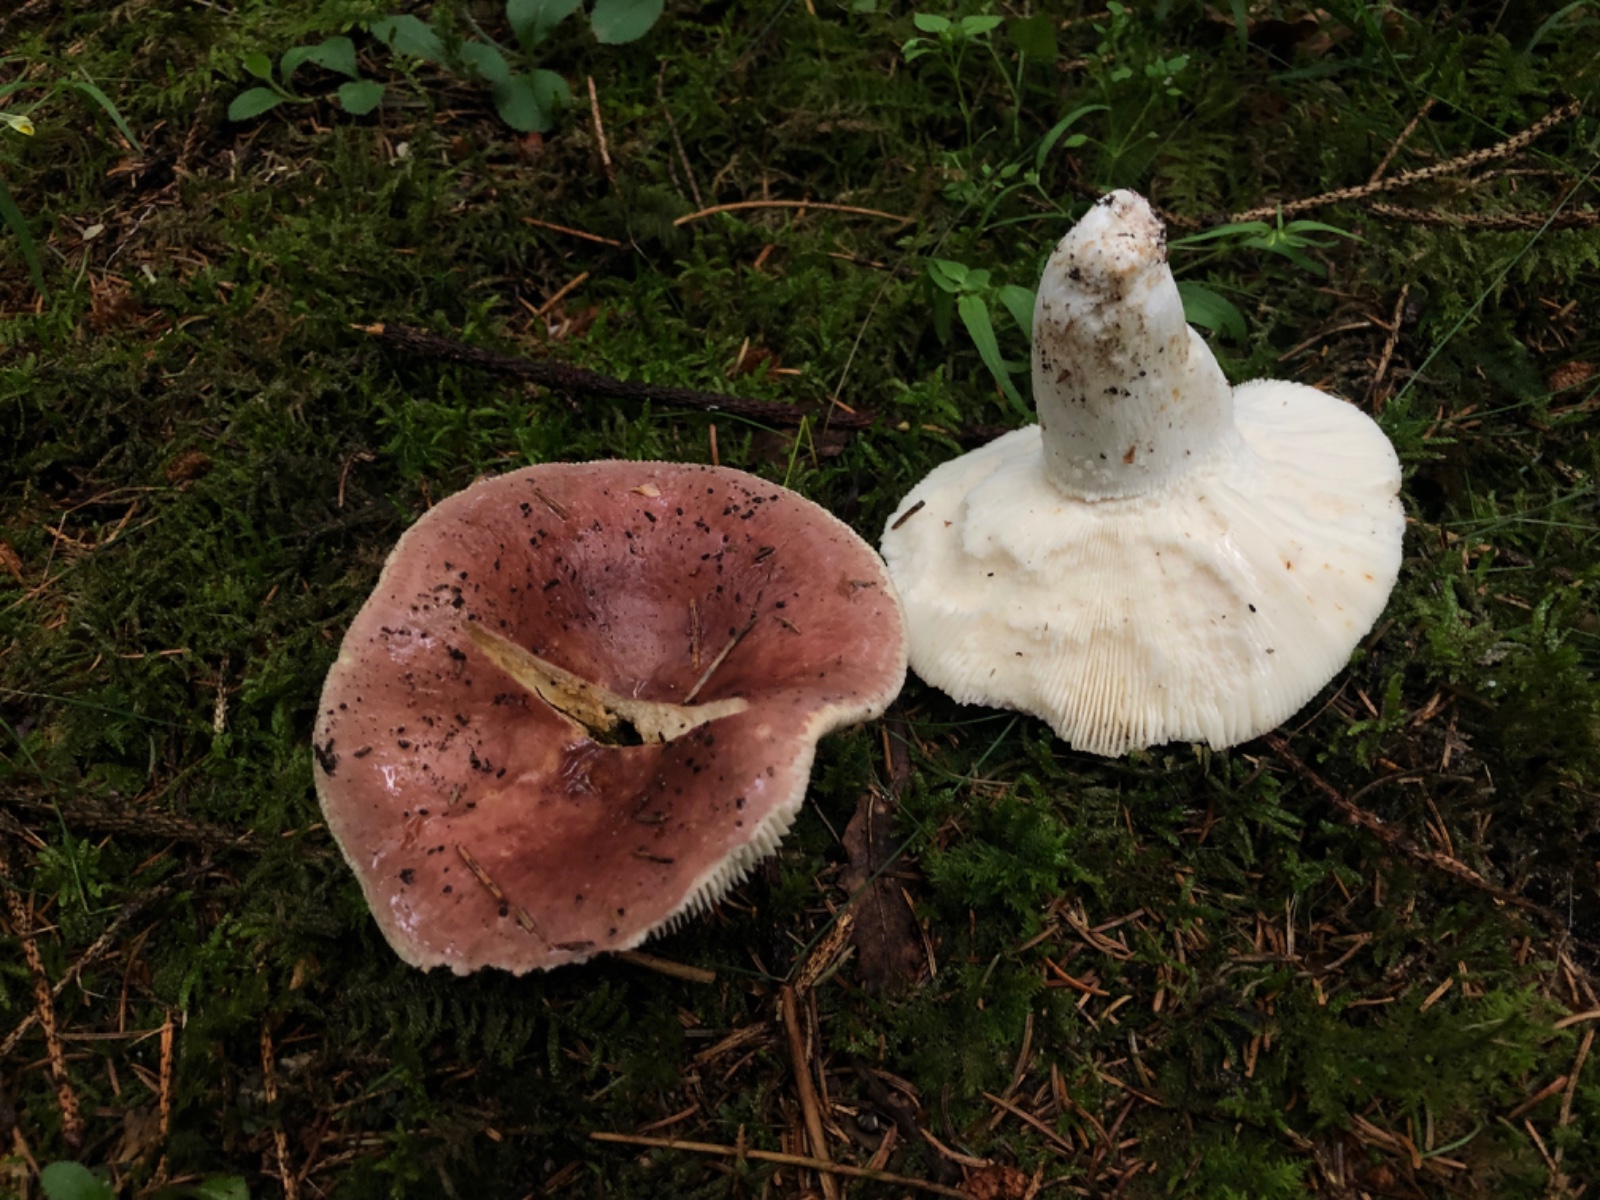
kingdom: Fungi
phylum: Basidiomycota
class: Agaricomycetes
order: Russulales
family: Russulaceae
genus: Russula
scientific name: Russula vesca
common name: spiselig skørhat
